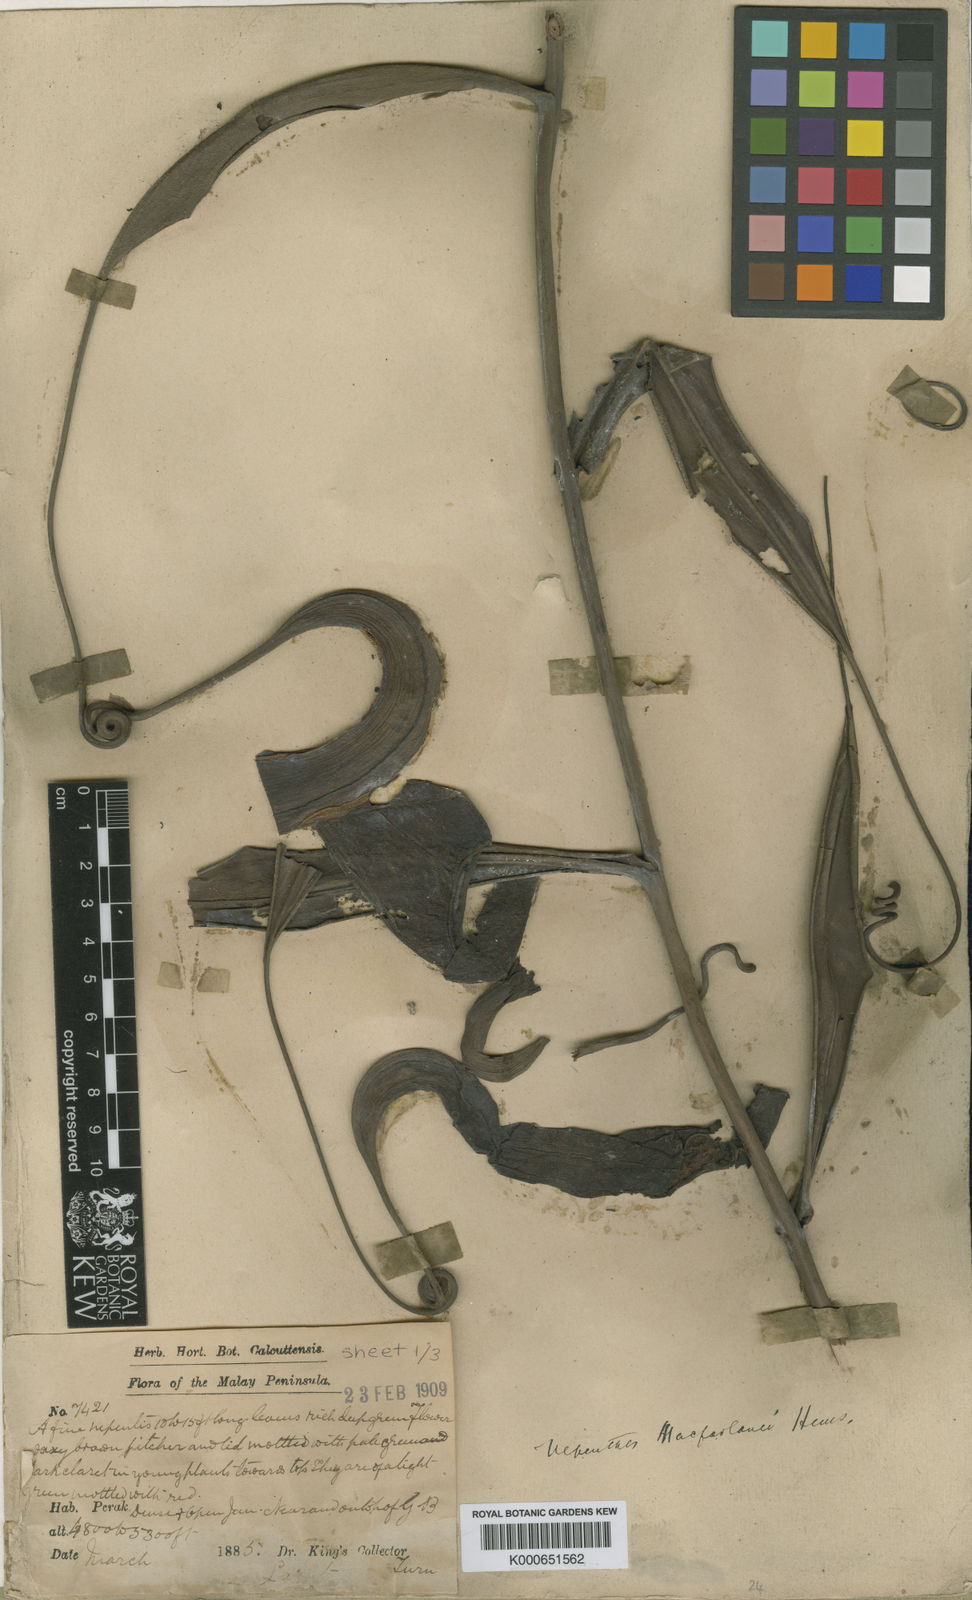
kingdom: Plantae
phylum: Tracheophyta
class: Magnoliopsida
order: Caryophyllales
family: Nepenthaceae
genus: Nepenthes
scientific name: Nepenthes macfarlanei
